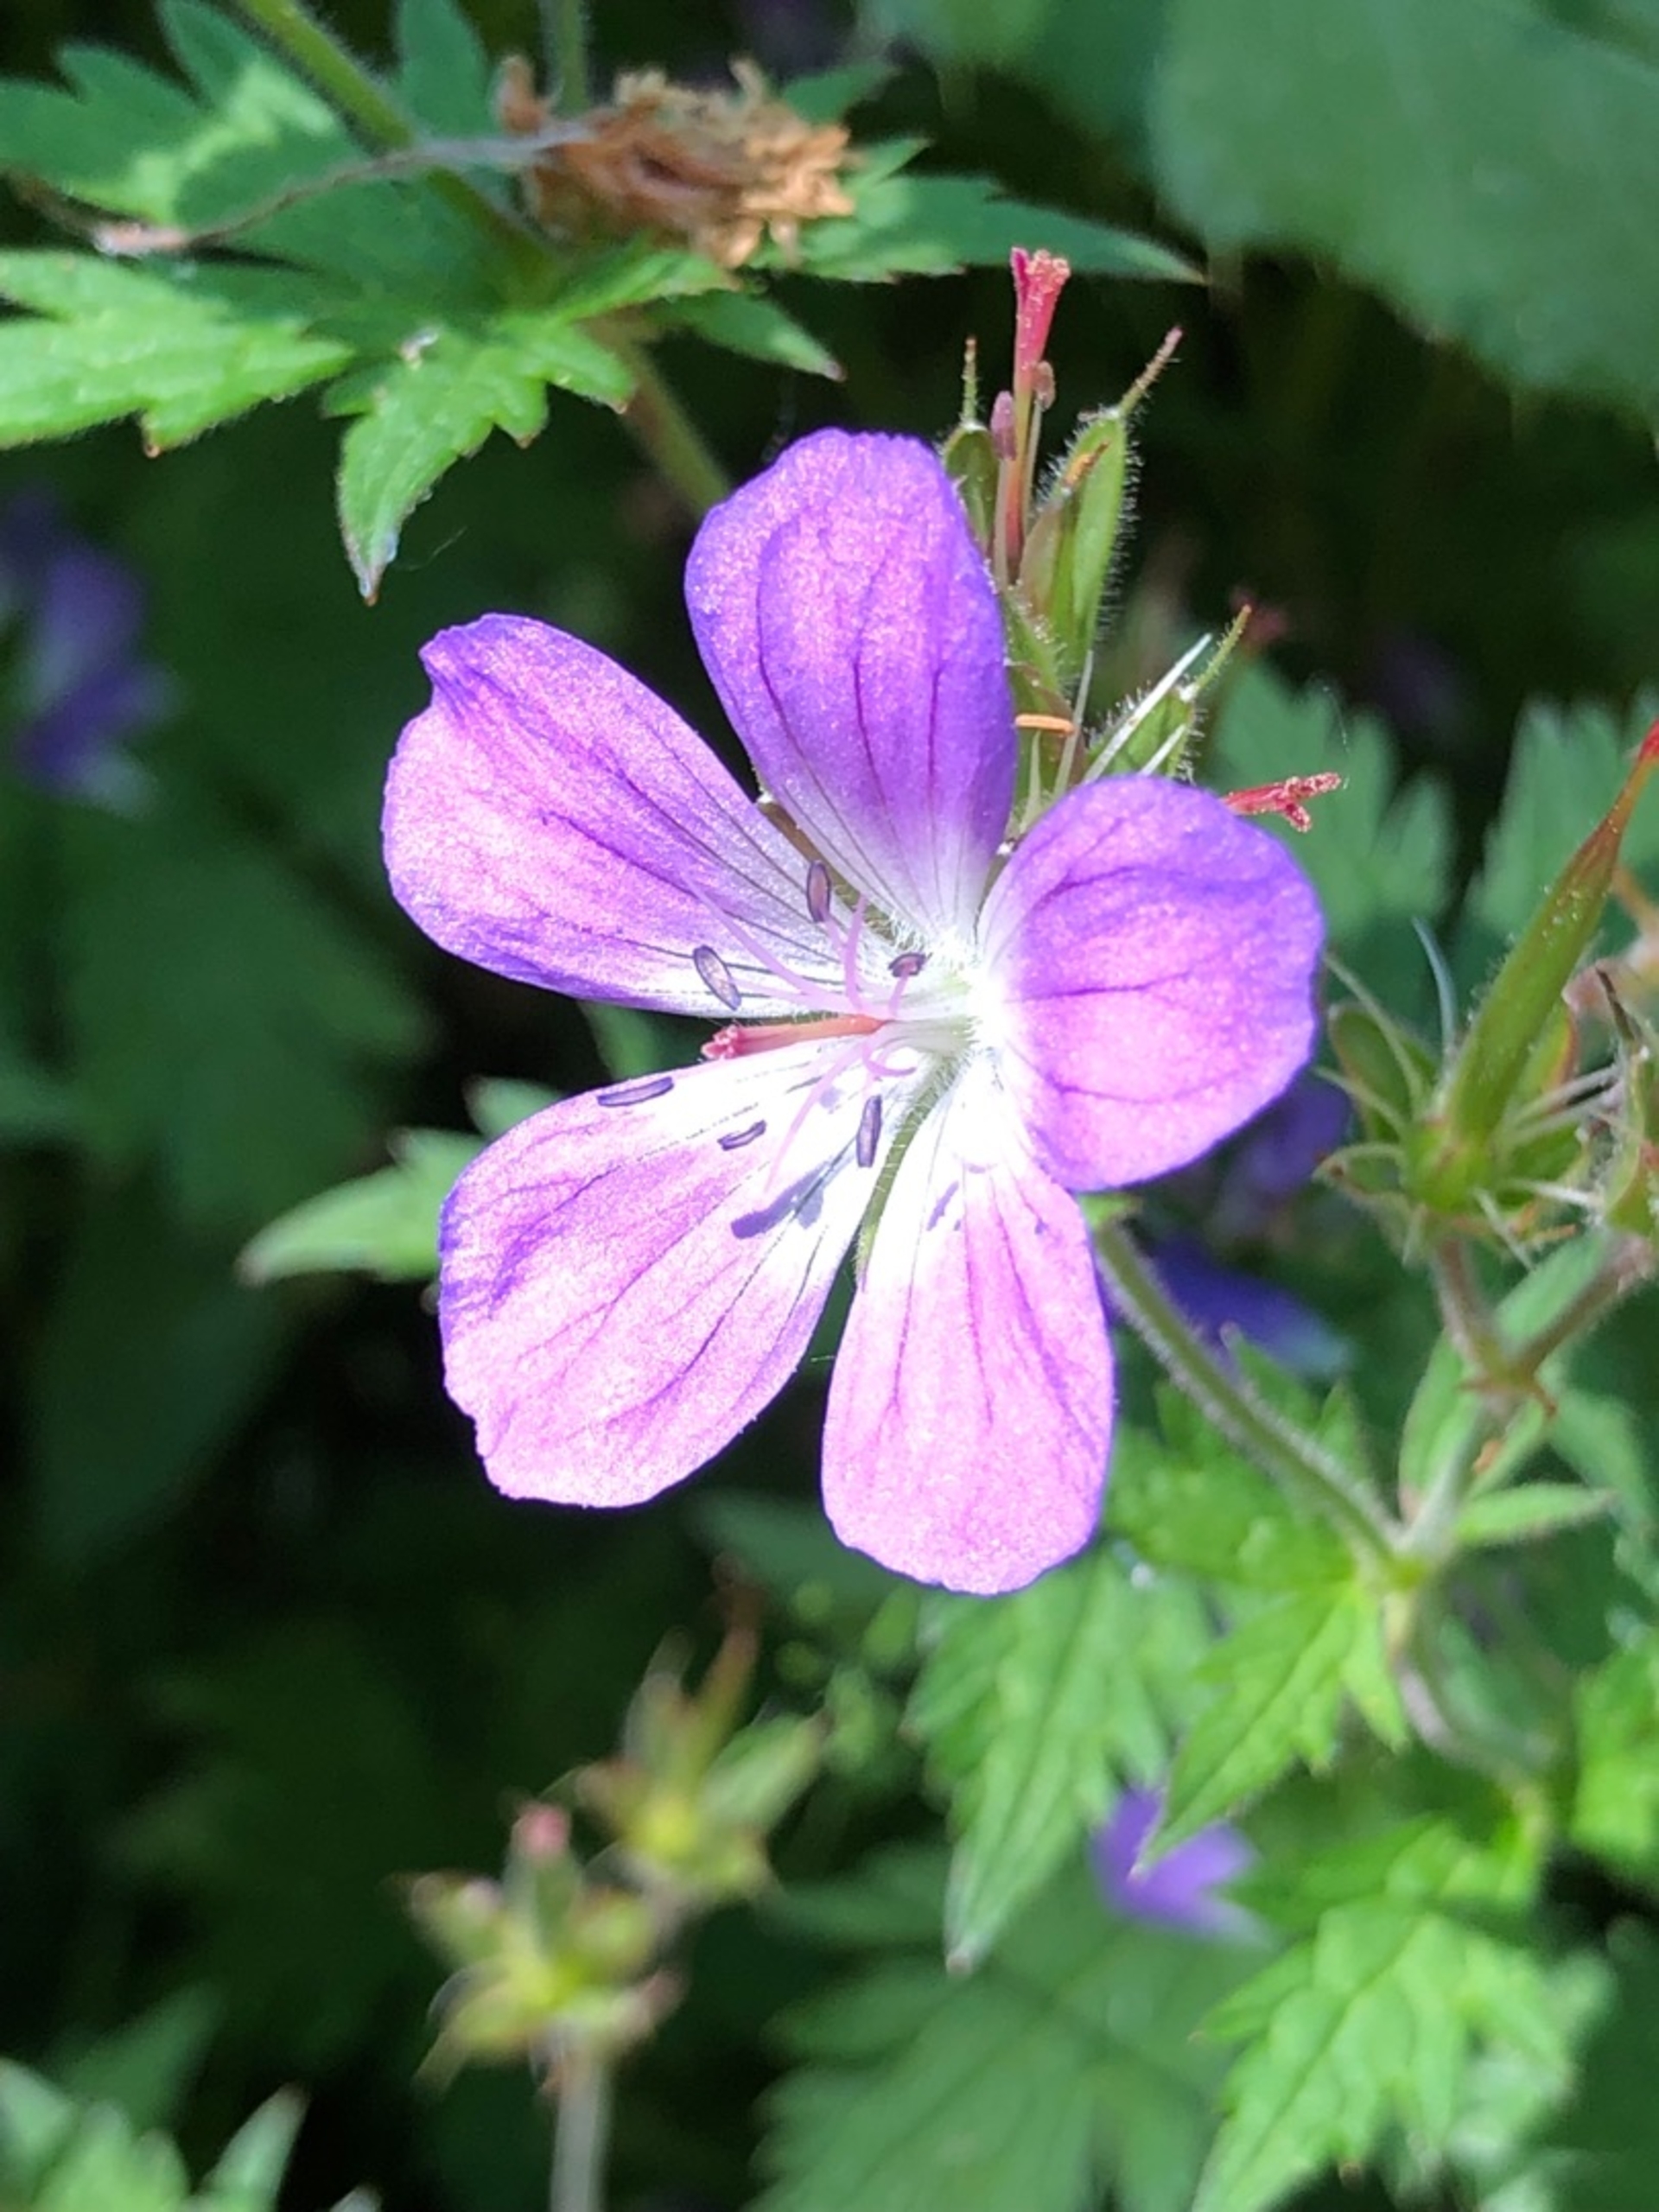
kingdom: Plantae
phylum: Tracheophyta
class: Magnoliopsida
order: Geraniales
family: Geraniaceae
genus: Geranium
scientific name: Geranium sylvaticum
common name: Skov-storkenæb
